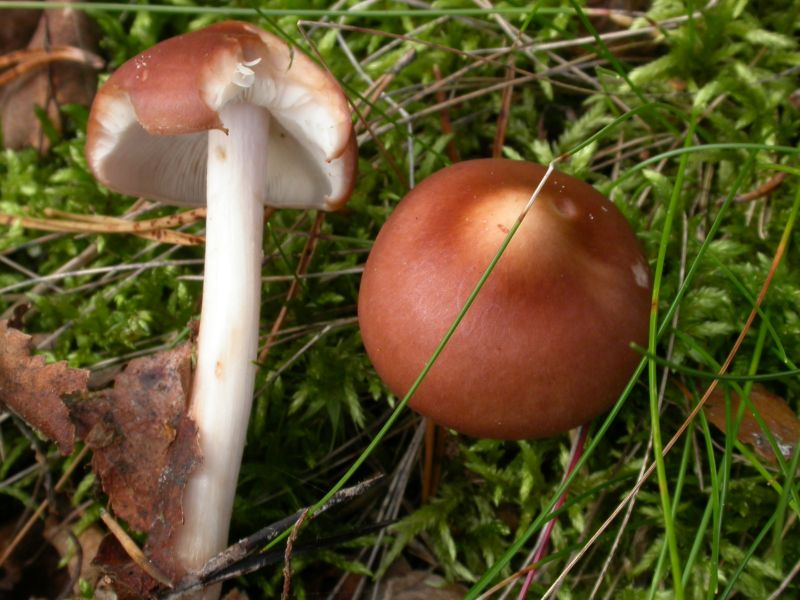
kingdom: Fungi
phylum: Basidiomycota
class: Agaricomycetes
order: Agaricales
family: Omphalotaceae
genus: Rhodocollybia
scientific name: Rhodocollybia prolixa
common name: snoet fladhat
